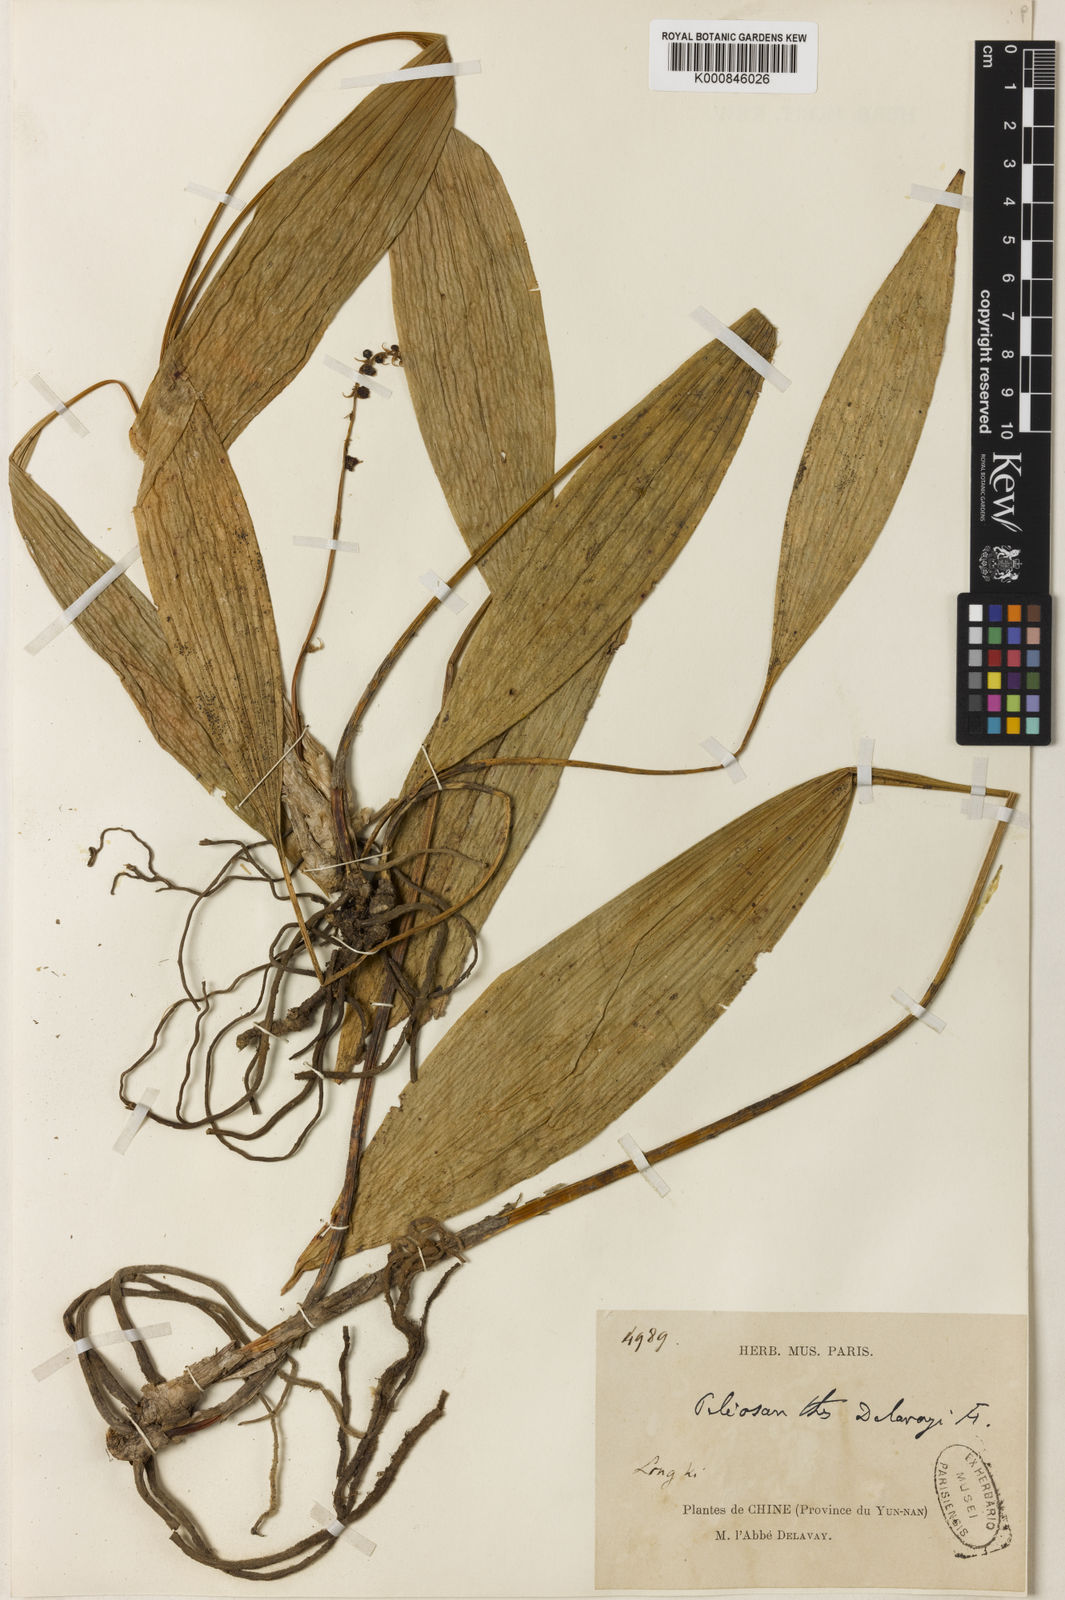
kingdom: Plantae
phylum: Tracheophyta
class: Liliopsida
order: Asparagales
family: Asparagaceae
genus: Peliosanthes
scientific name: Peliosanthes teta
